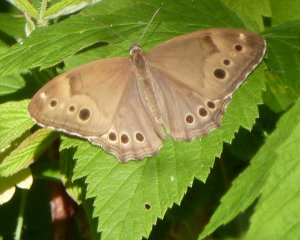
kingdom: Animalia
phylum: Arthropoda
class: Insecta
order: Lepidoptera
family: Nymphalidae
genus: Lethe
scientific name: Lethe anthedon
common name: Northern Pearly-Eye
